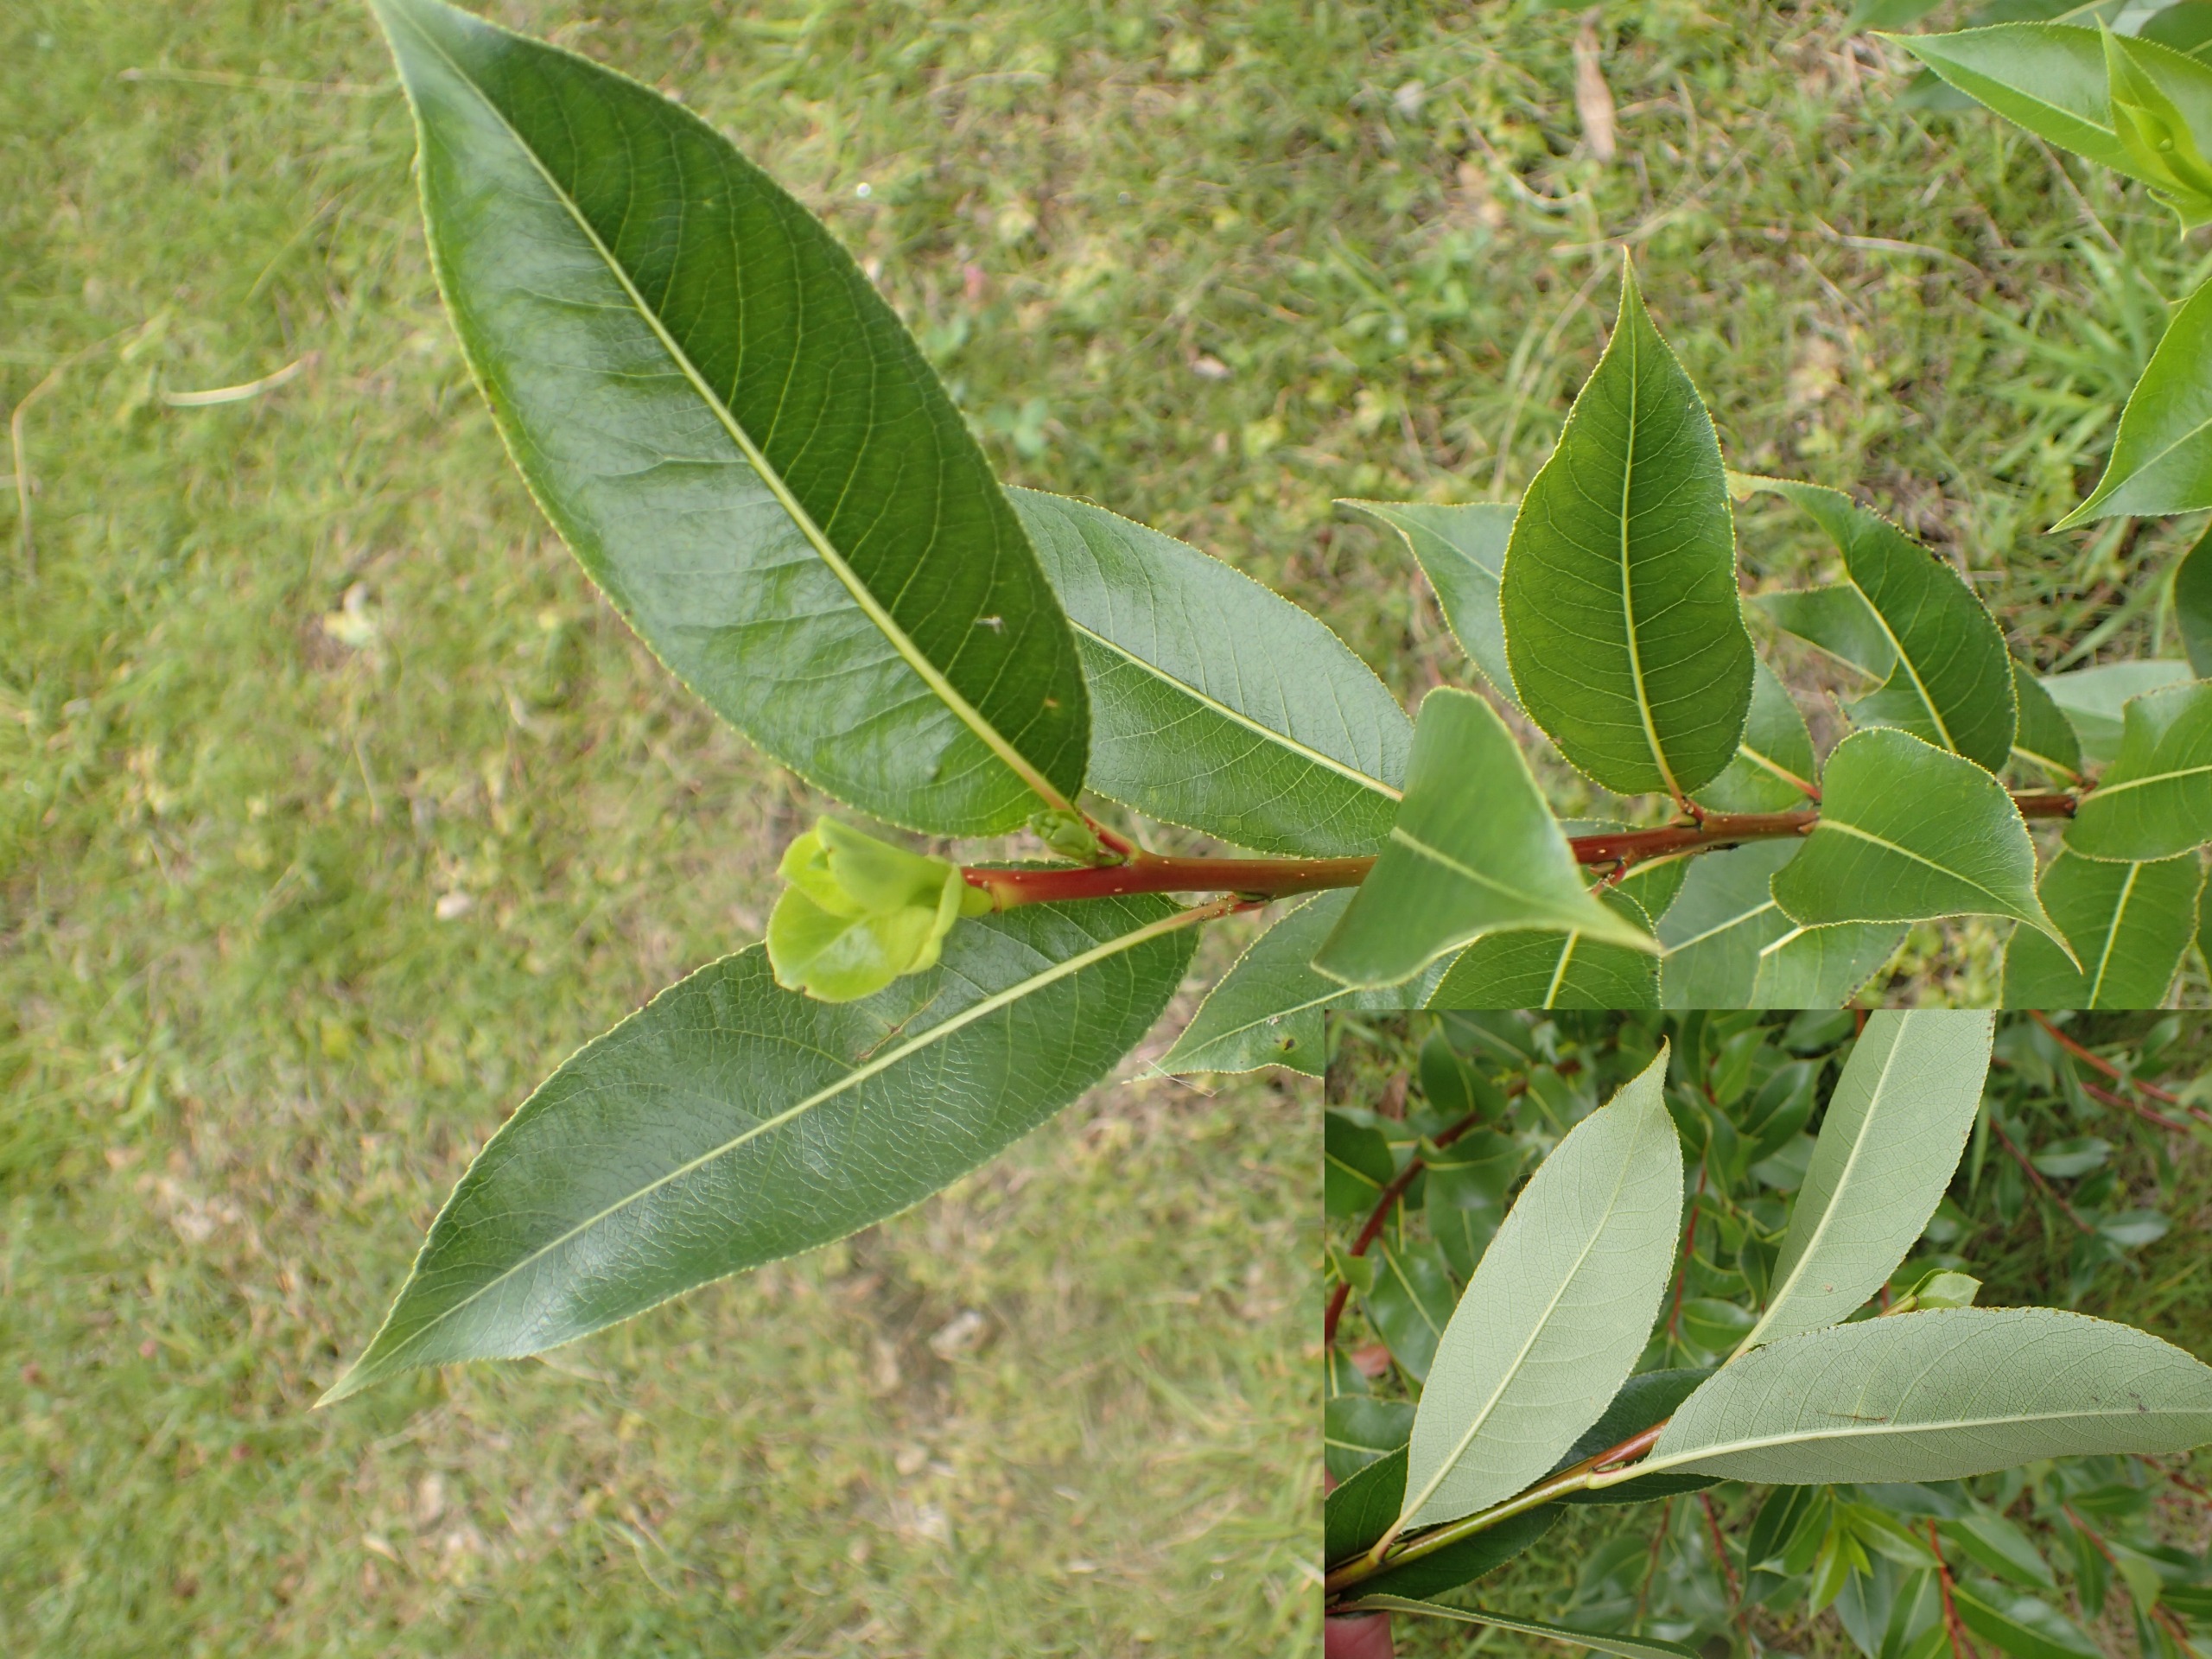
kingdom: Plantae
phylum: Tracheophyta
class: Magnoliopsida
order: Malpighiales
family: Salicaceae
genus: Salix
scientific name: Salix pentandra
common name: Femhannet pil
